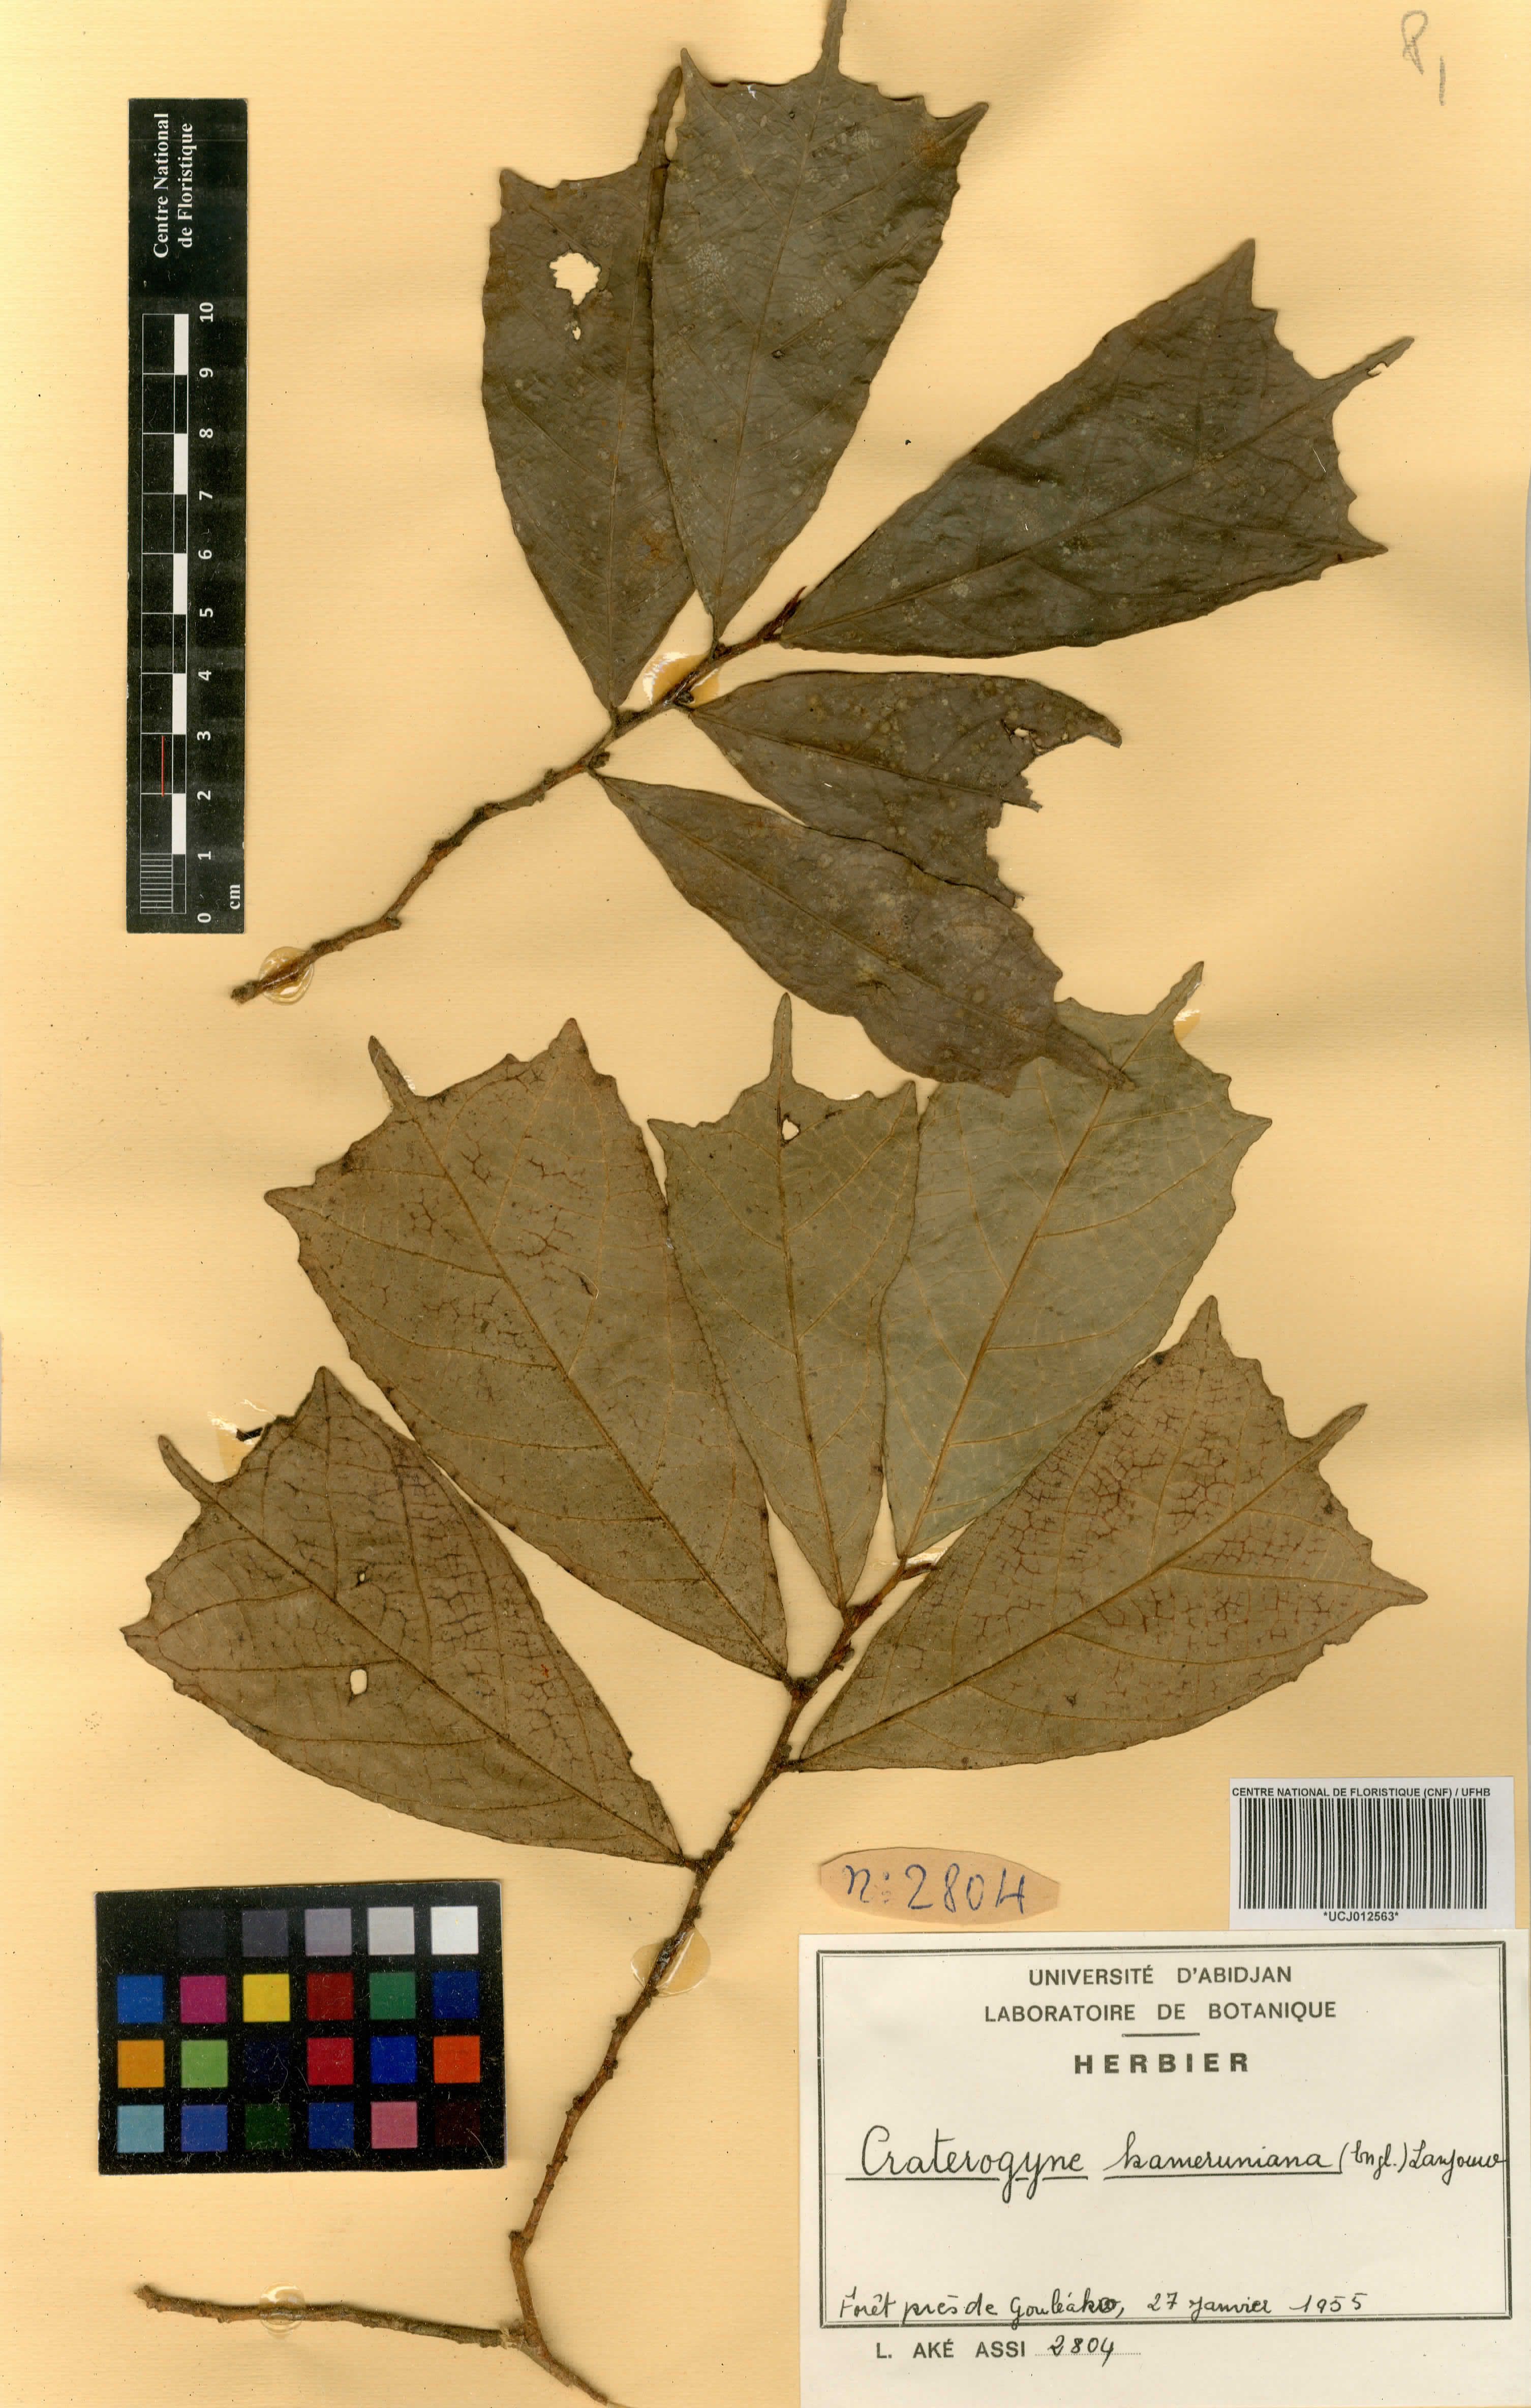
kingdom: Plantae
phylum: Tracheophyta
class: Magnoliopsida
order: Rosales
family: Moraceae
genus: Dorstenia
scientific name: Dorstenia kameruniana
